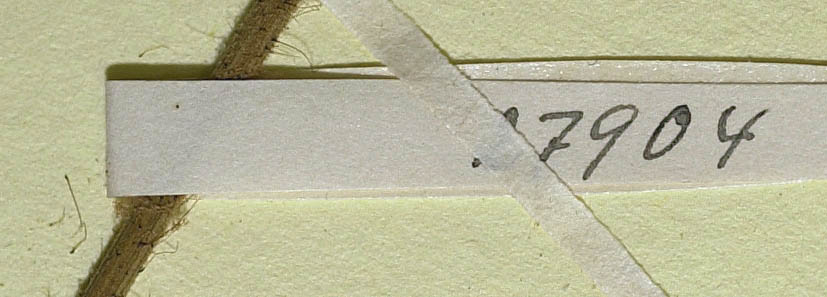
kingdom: Plantae
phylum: Tracheophyta
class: Magnoliopsida
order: Asterales
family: Asteraceae
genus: Hieracium
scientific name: Hieracium jordanii
